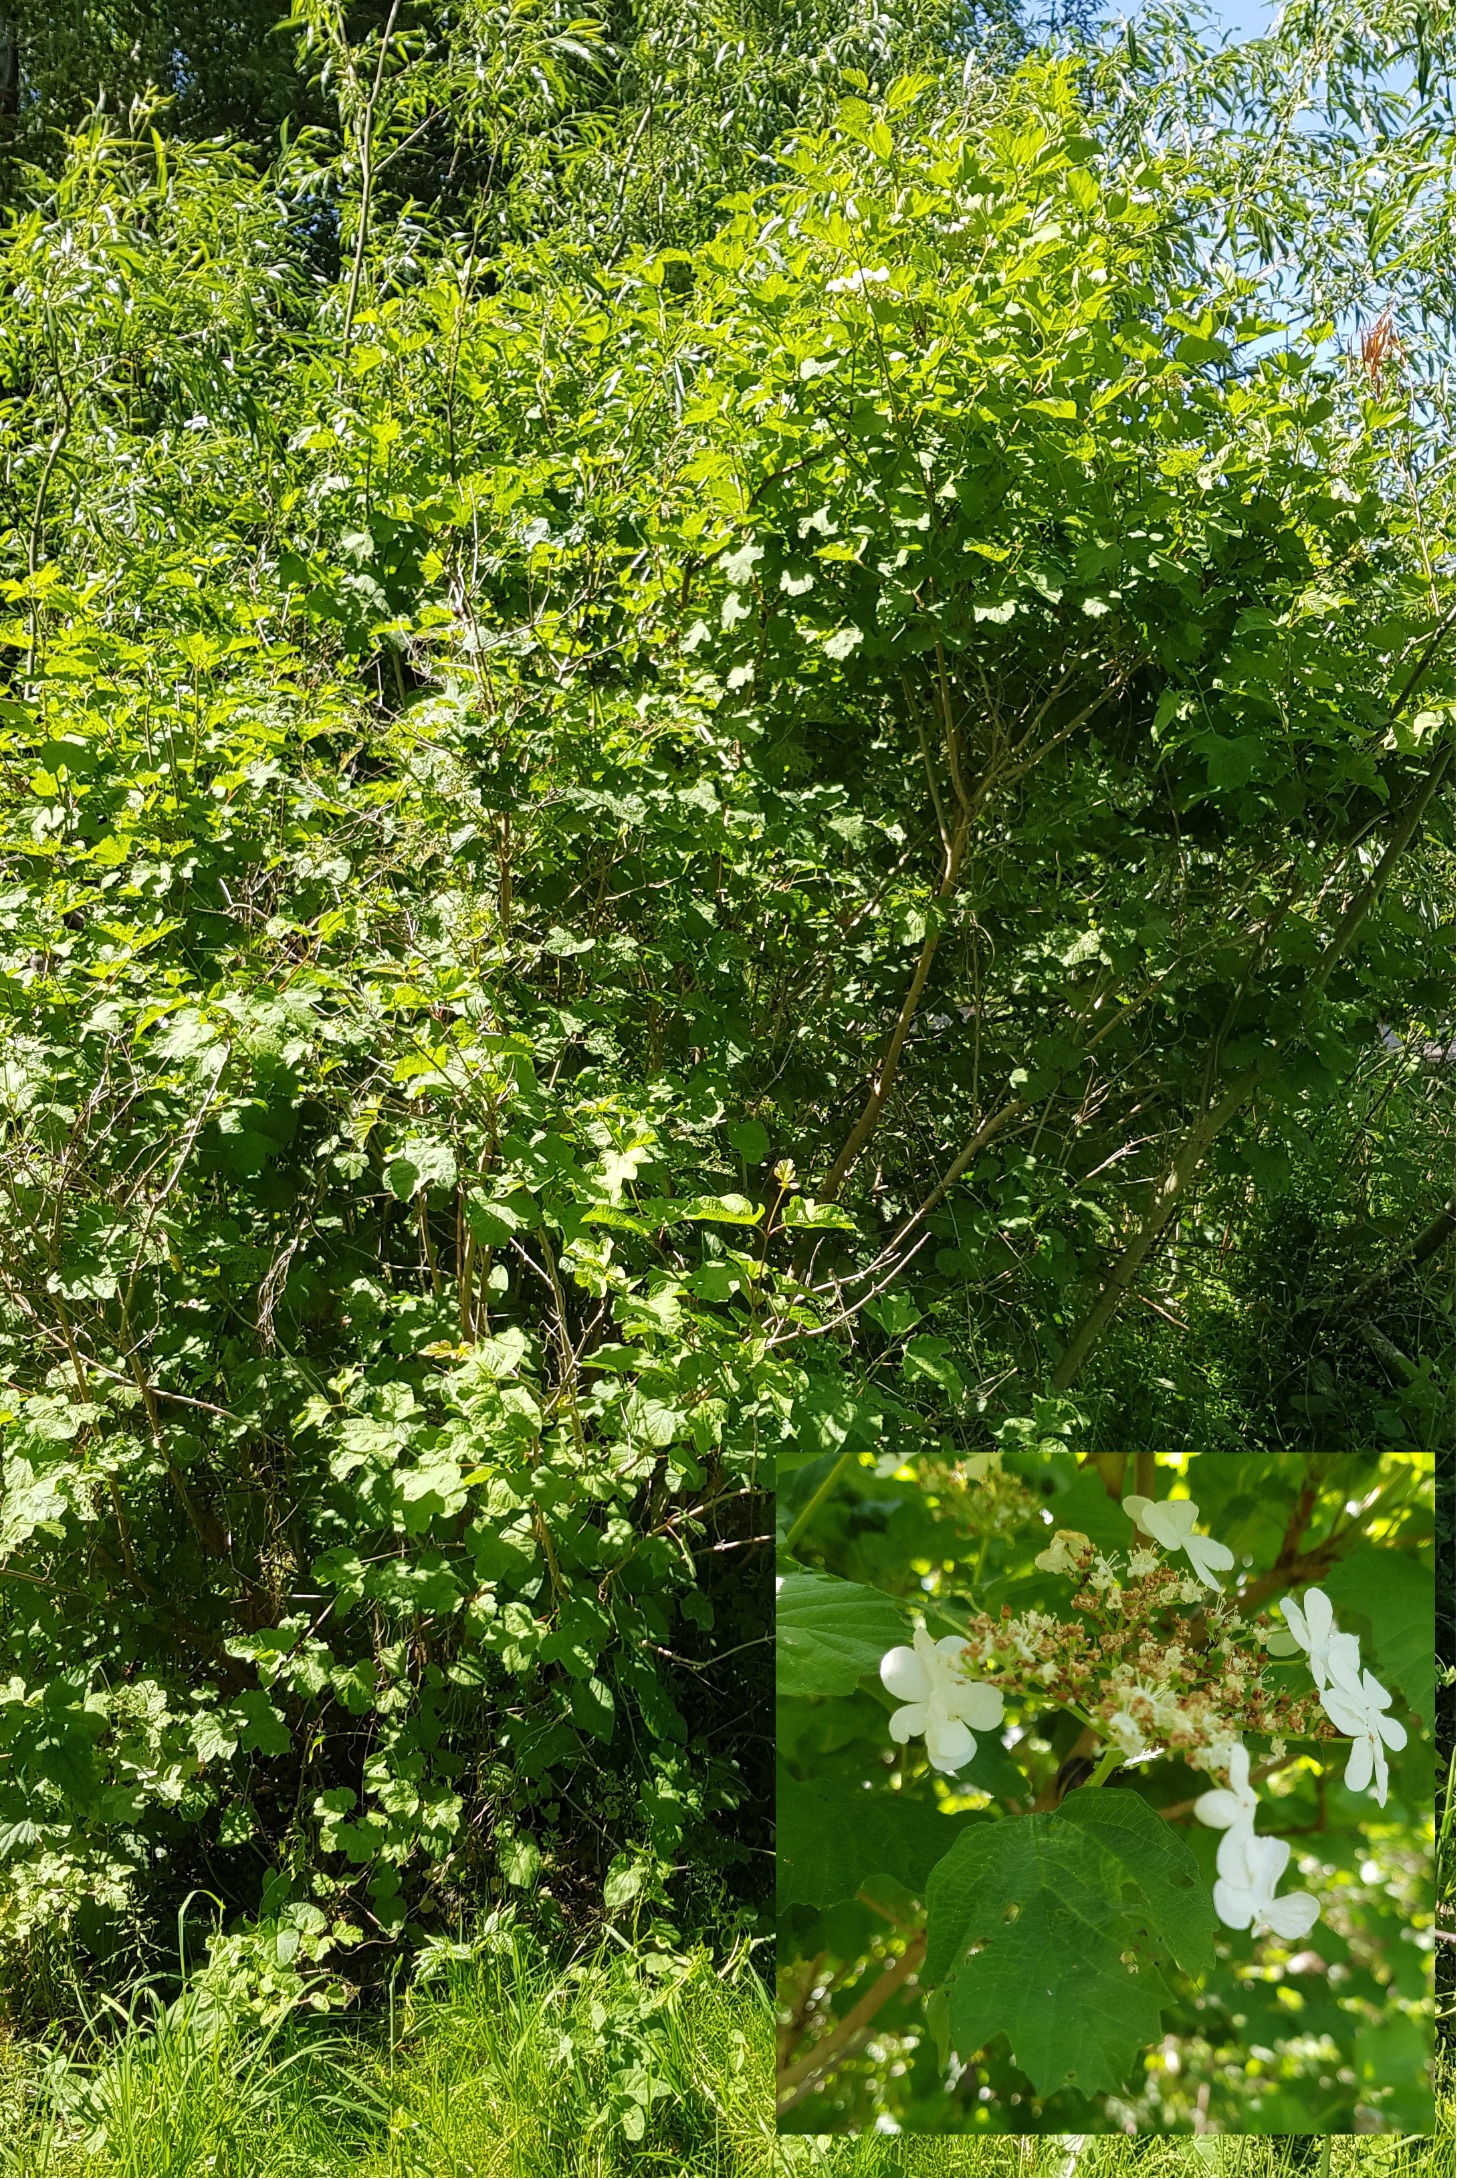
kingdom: Plantae
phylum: Tracheophyta
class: Magnoliopsida
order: Dipsacales
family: Viburnaceae
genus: Viburnum
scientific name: Viburnum opulus
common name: Kvalkved
